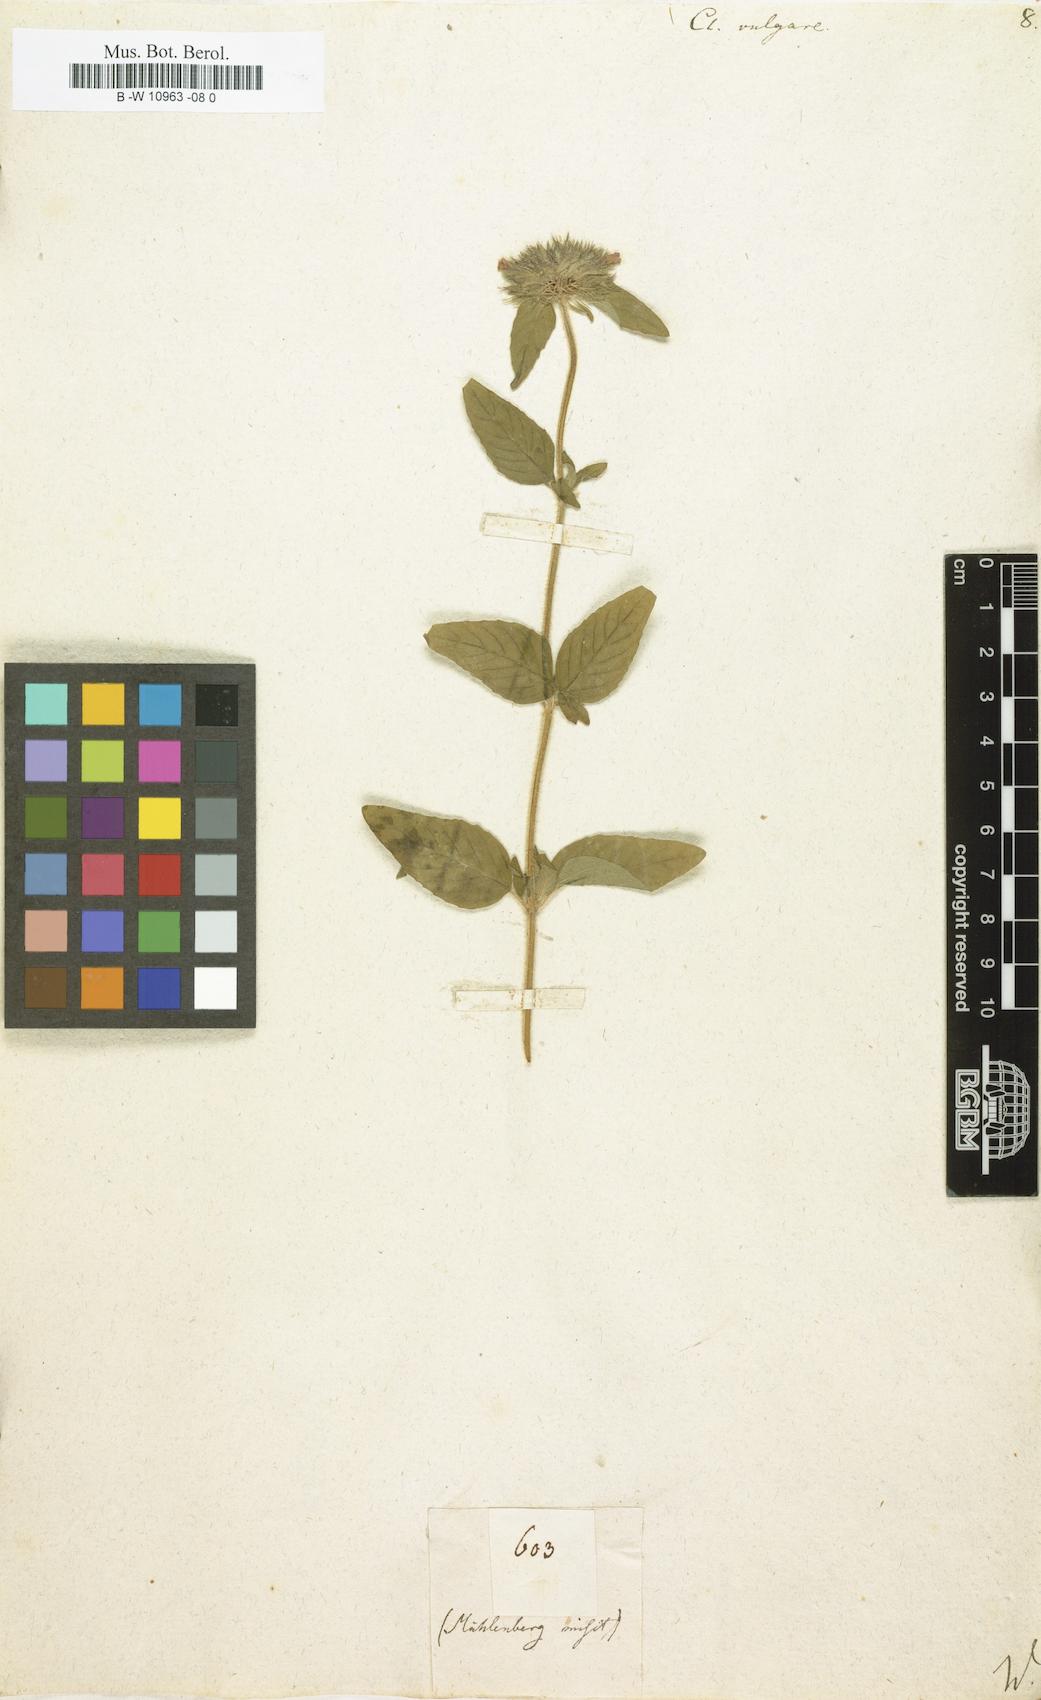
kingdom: Plantae
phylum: Tracheophyta
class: Magnoliopsida
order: Lamiales
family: Lamiaceae
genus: Clinopodium
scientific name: Clinopodium vulgare
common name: Wild basil
